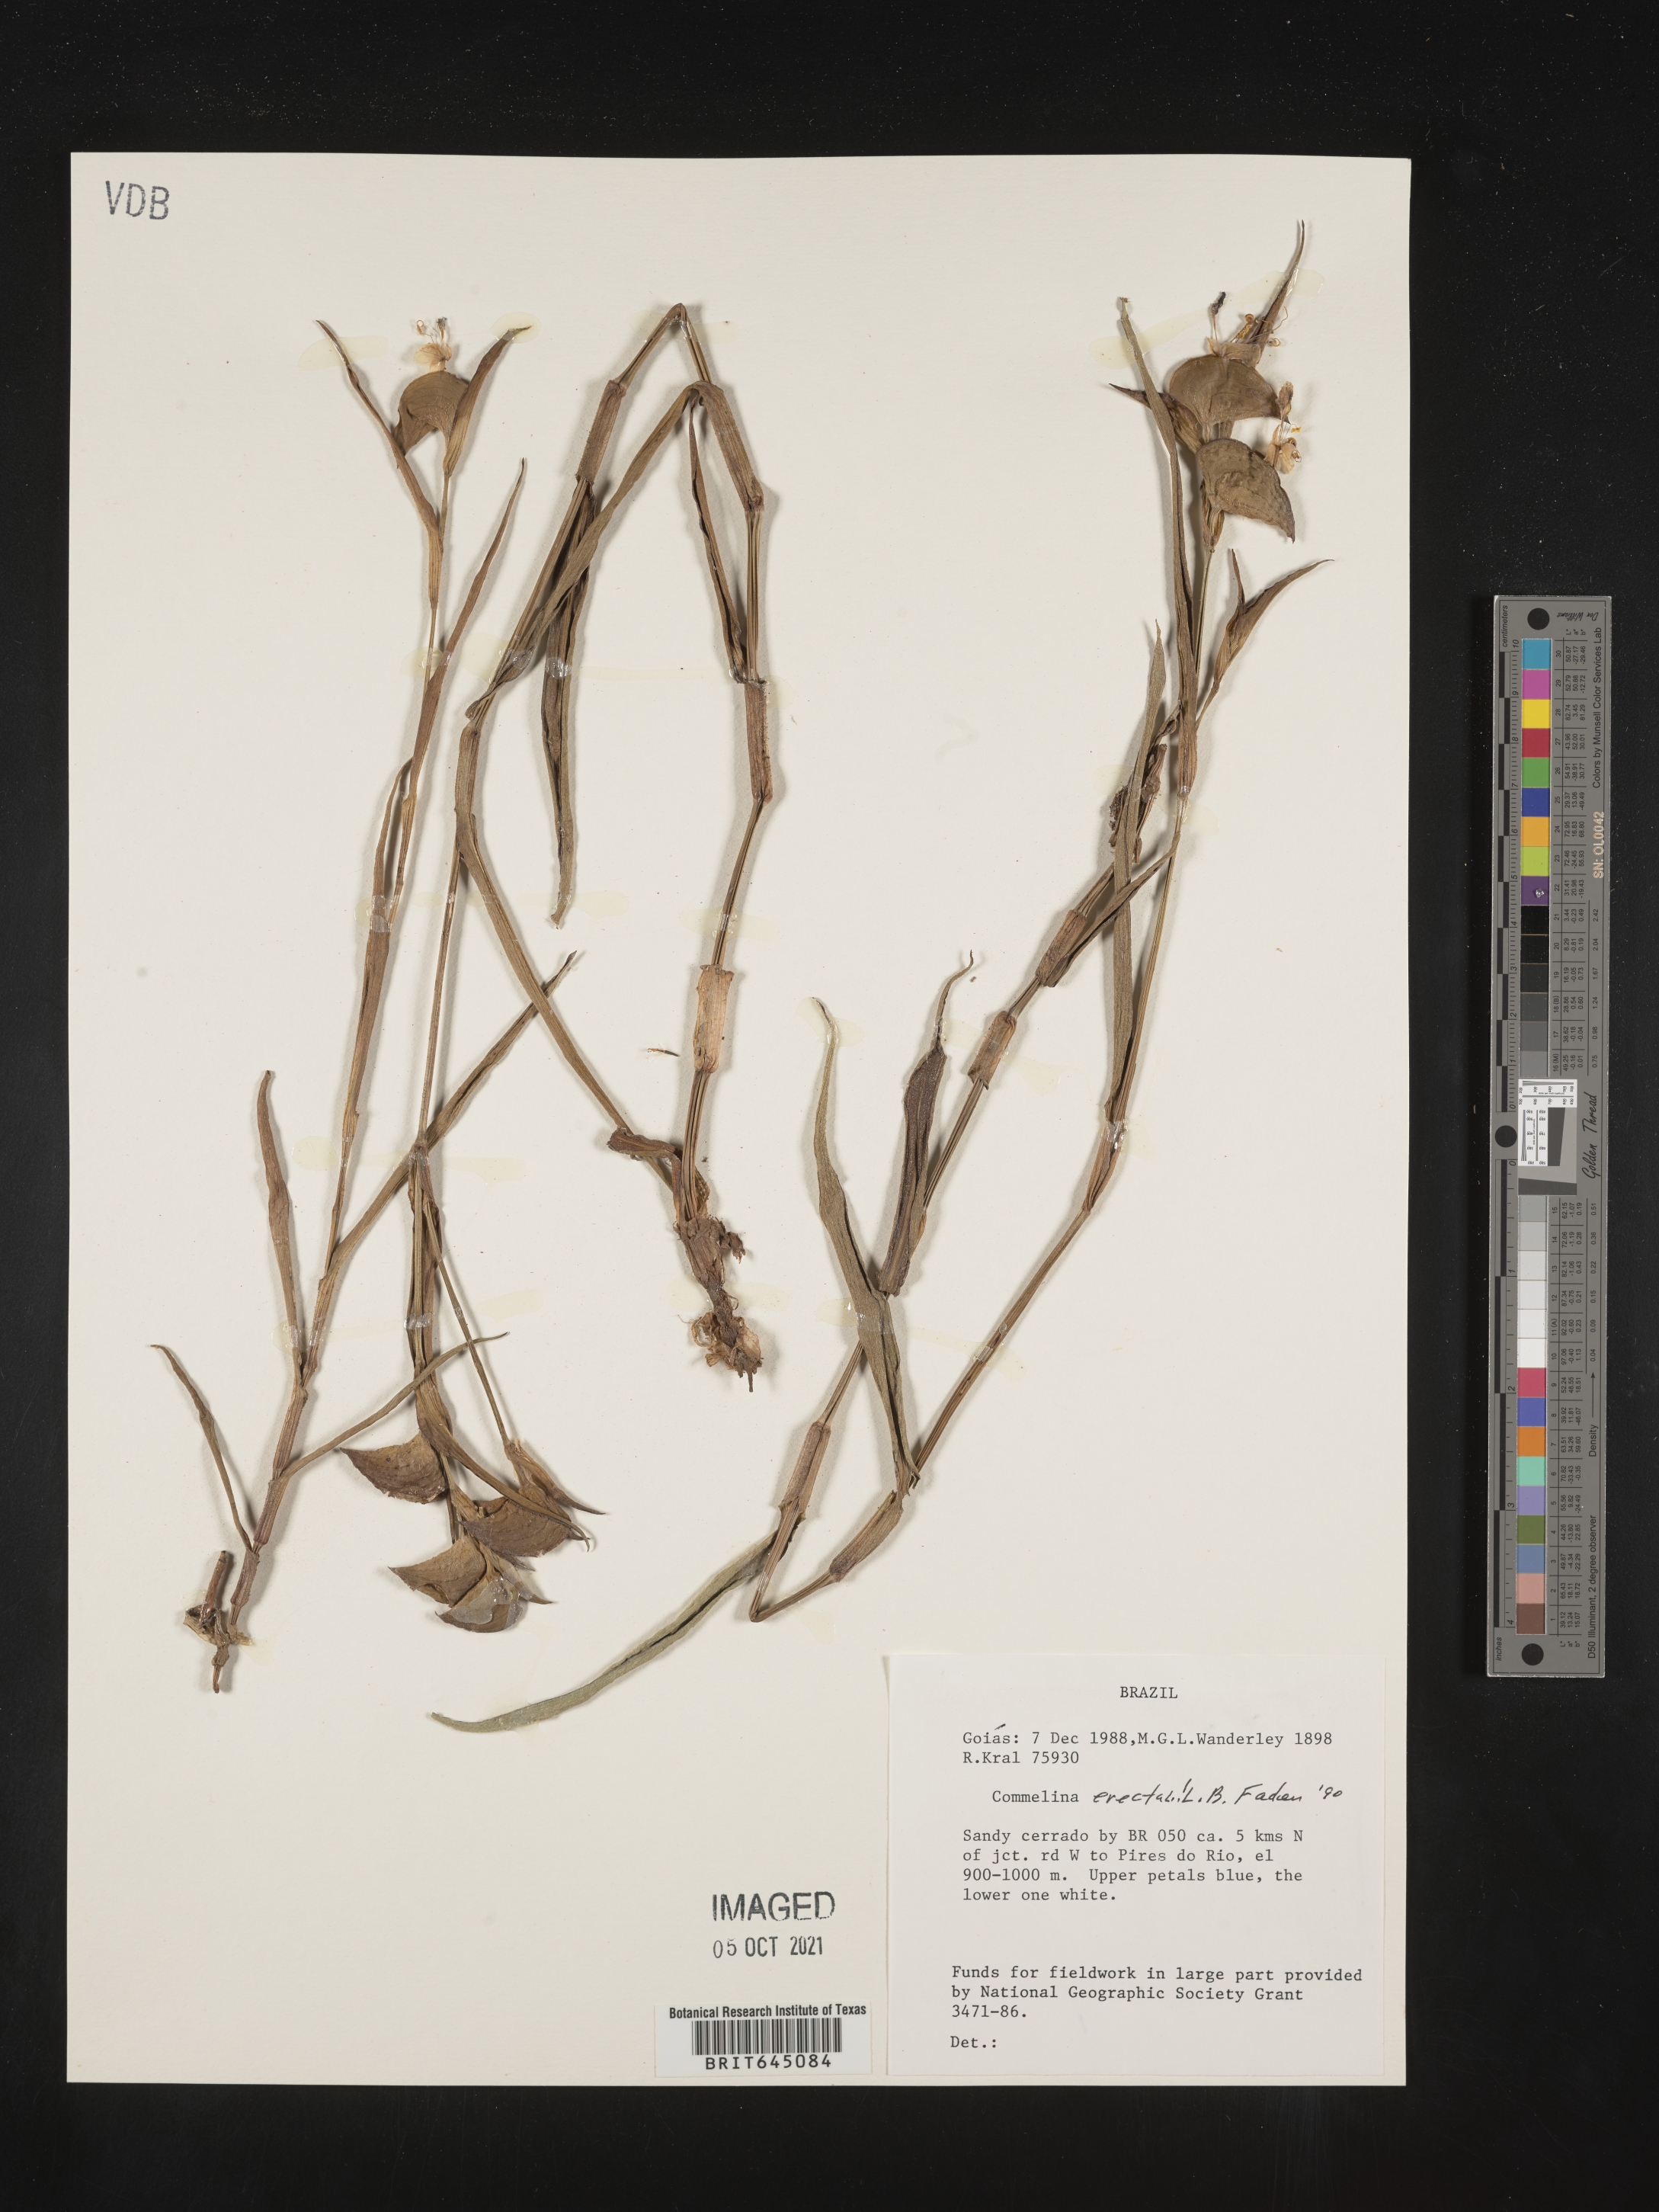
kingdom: Plantae
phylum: Tracheophyta
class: Liliopsida
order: Commelinales
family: Commelinaceae
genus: Commelina
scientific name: Commelina erecta
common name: Blousel blommetjie
